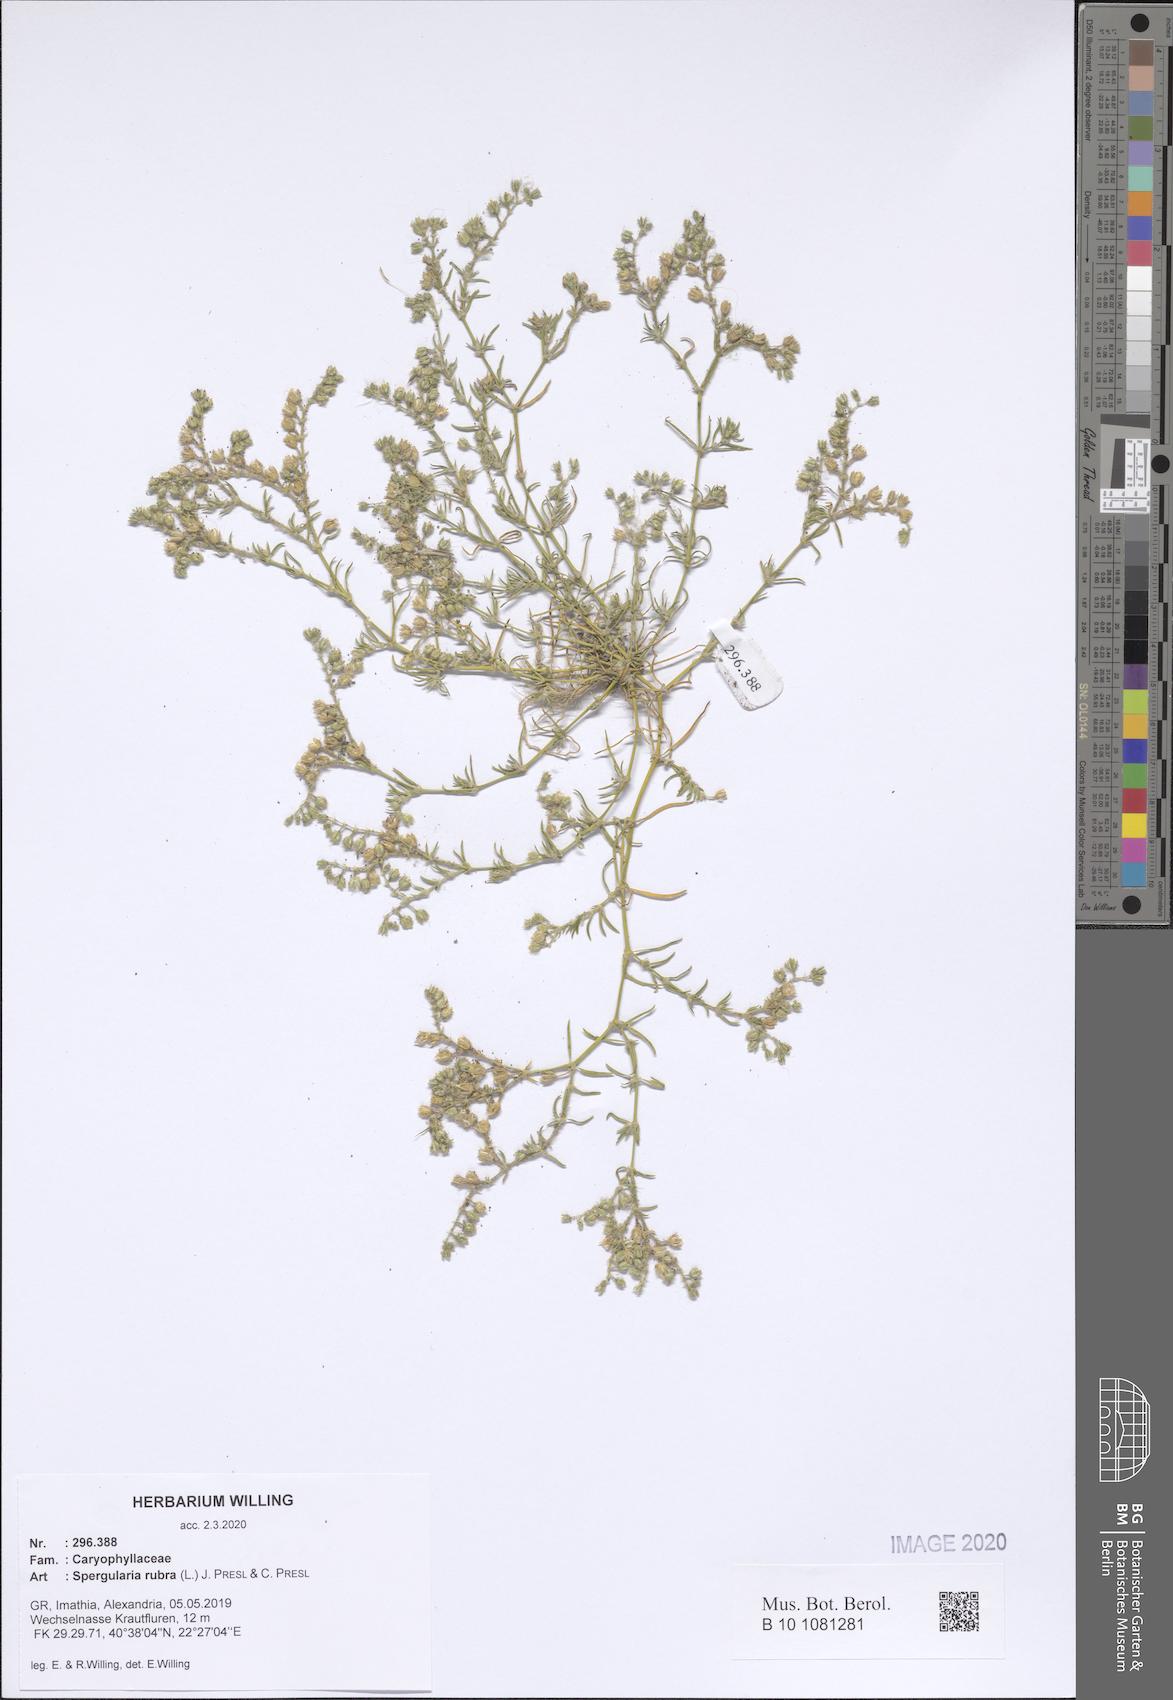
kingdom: Plantae
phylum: Tracheophyta
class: Magnoliopsida
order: Caryophyllales
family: Caryophyllaceae
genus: Spergularia
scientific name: Spergularia rubra
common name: Red sand-spurrey
